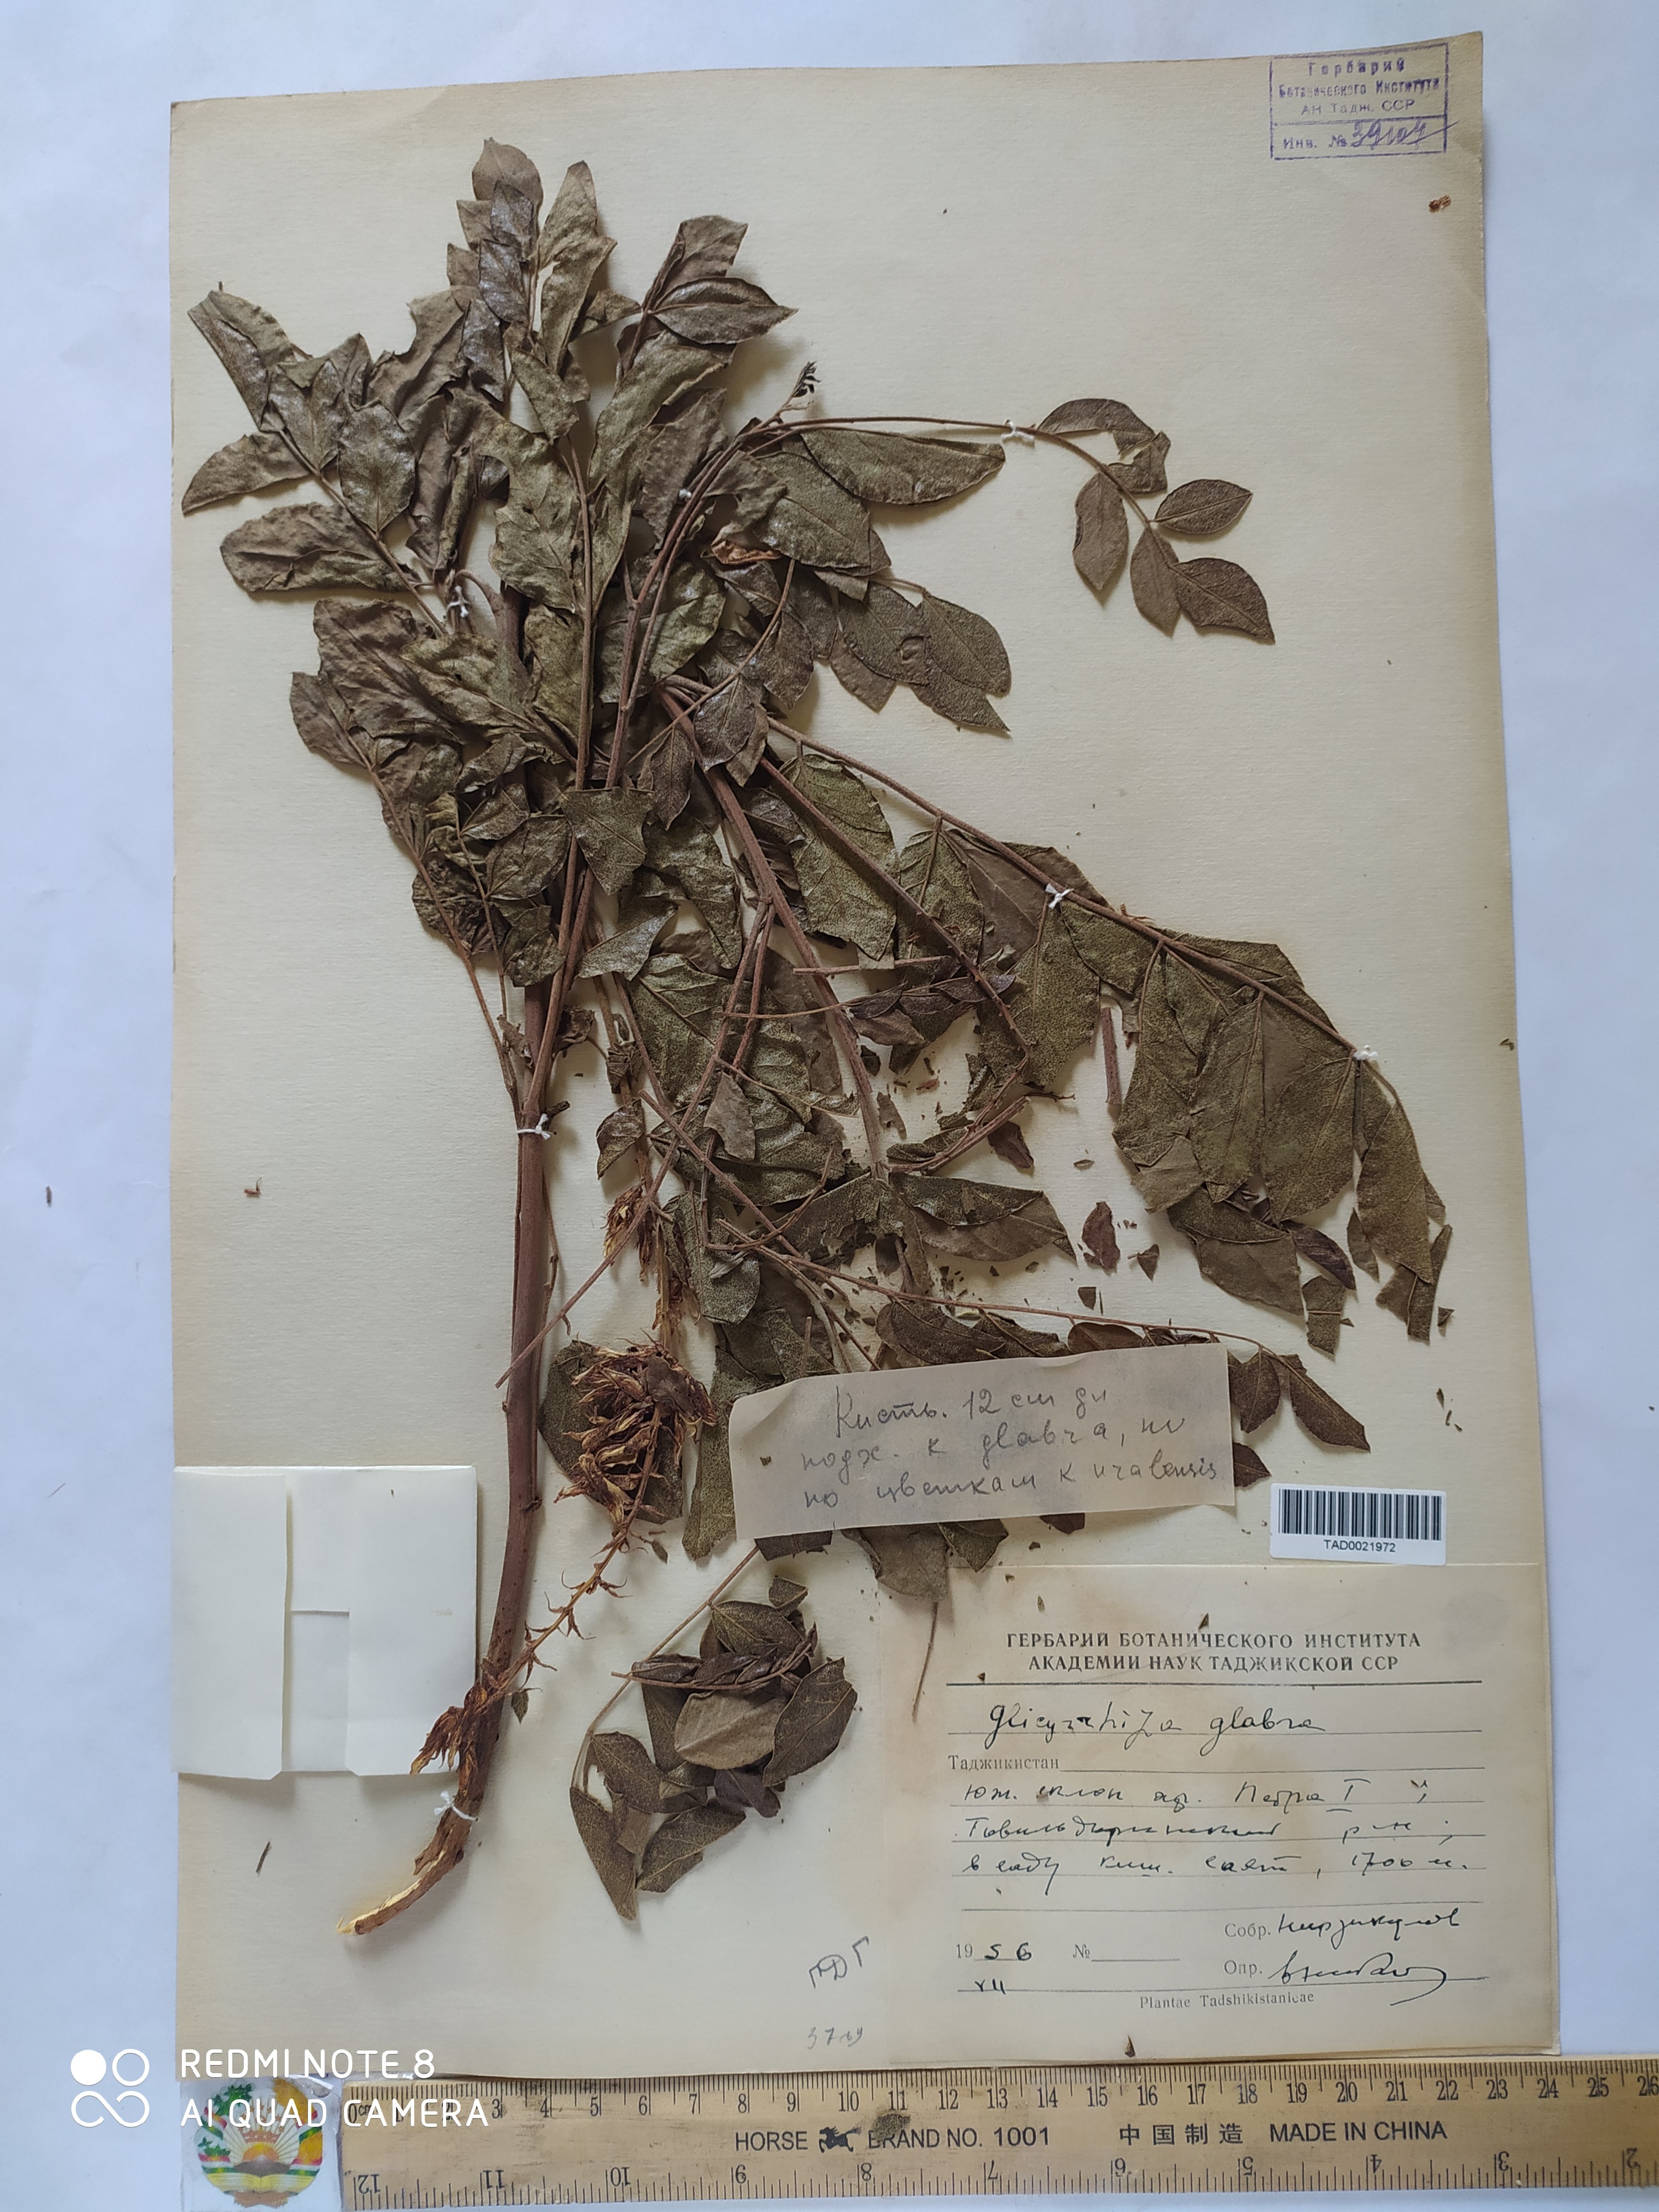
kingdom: Plantae
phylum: Tracheophyta
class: Magnoliopsida
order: Fabales
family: Fabaceae
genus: Glycyrrhiza
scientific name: Glycyrrhiza glabra
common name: Liquorice
